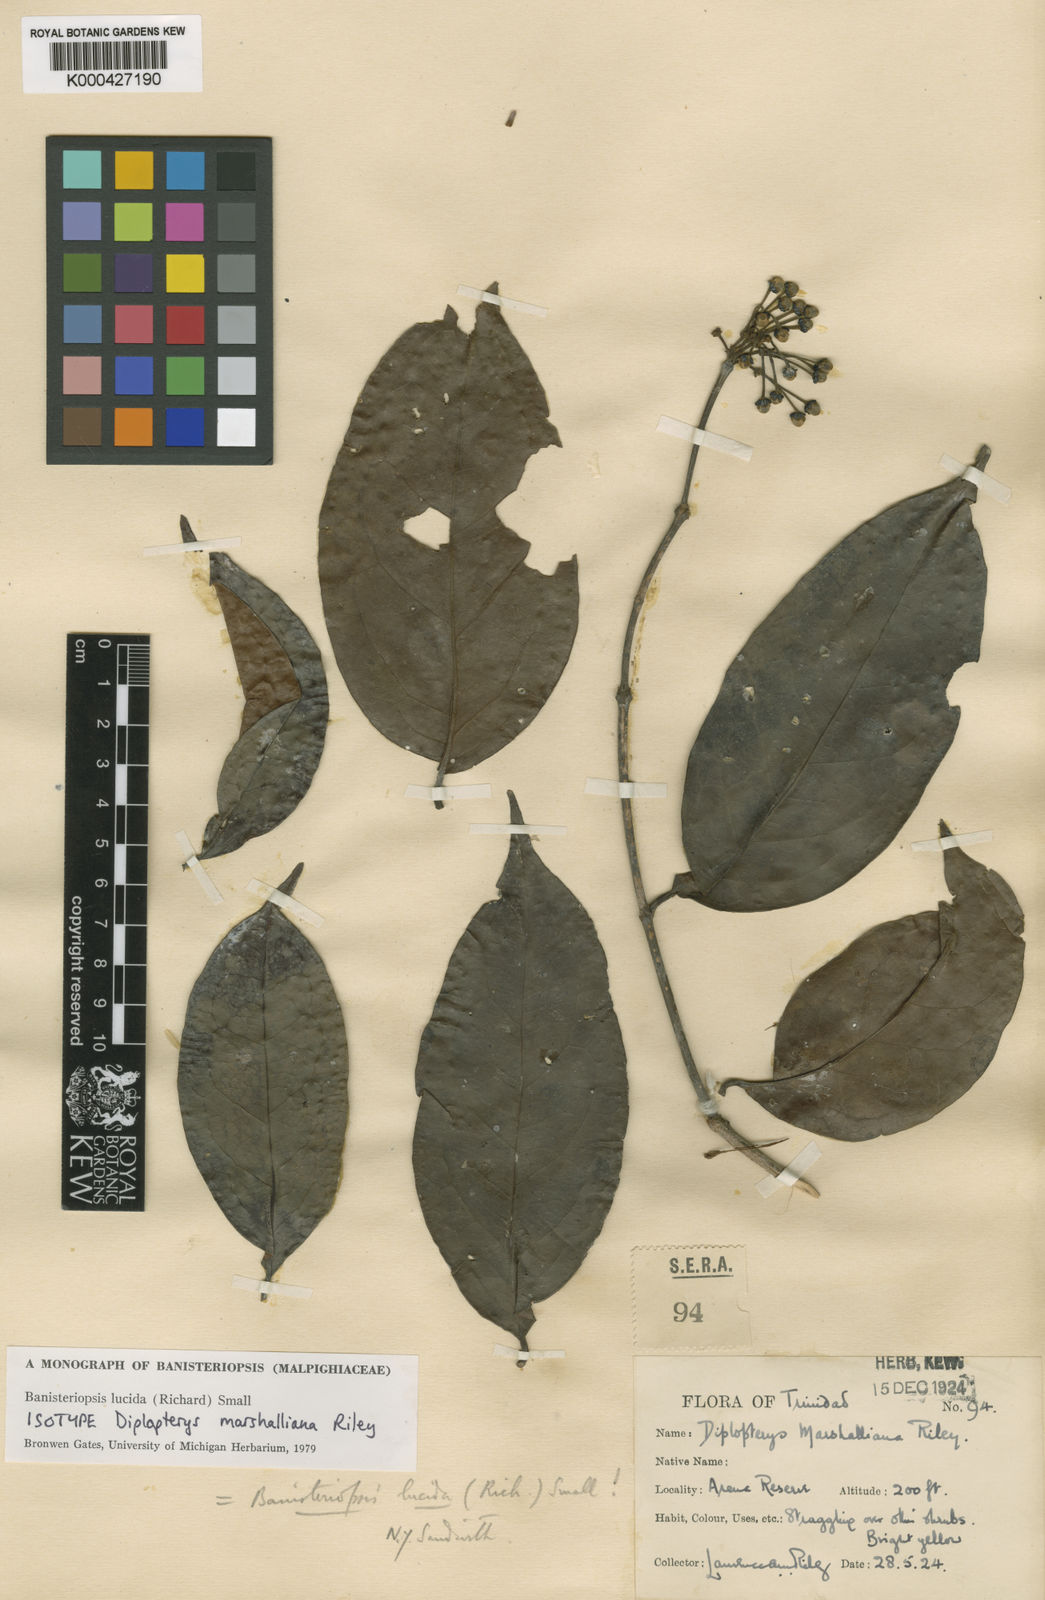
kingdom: Plantae
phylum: Tracheophyta
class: Magnoliopsida
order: Malpighiales
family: Malpighiaceae
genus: Diplopterys
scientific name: Diplopterys lucida
